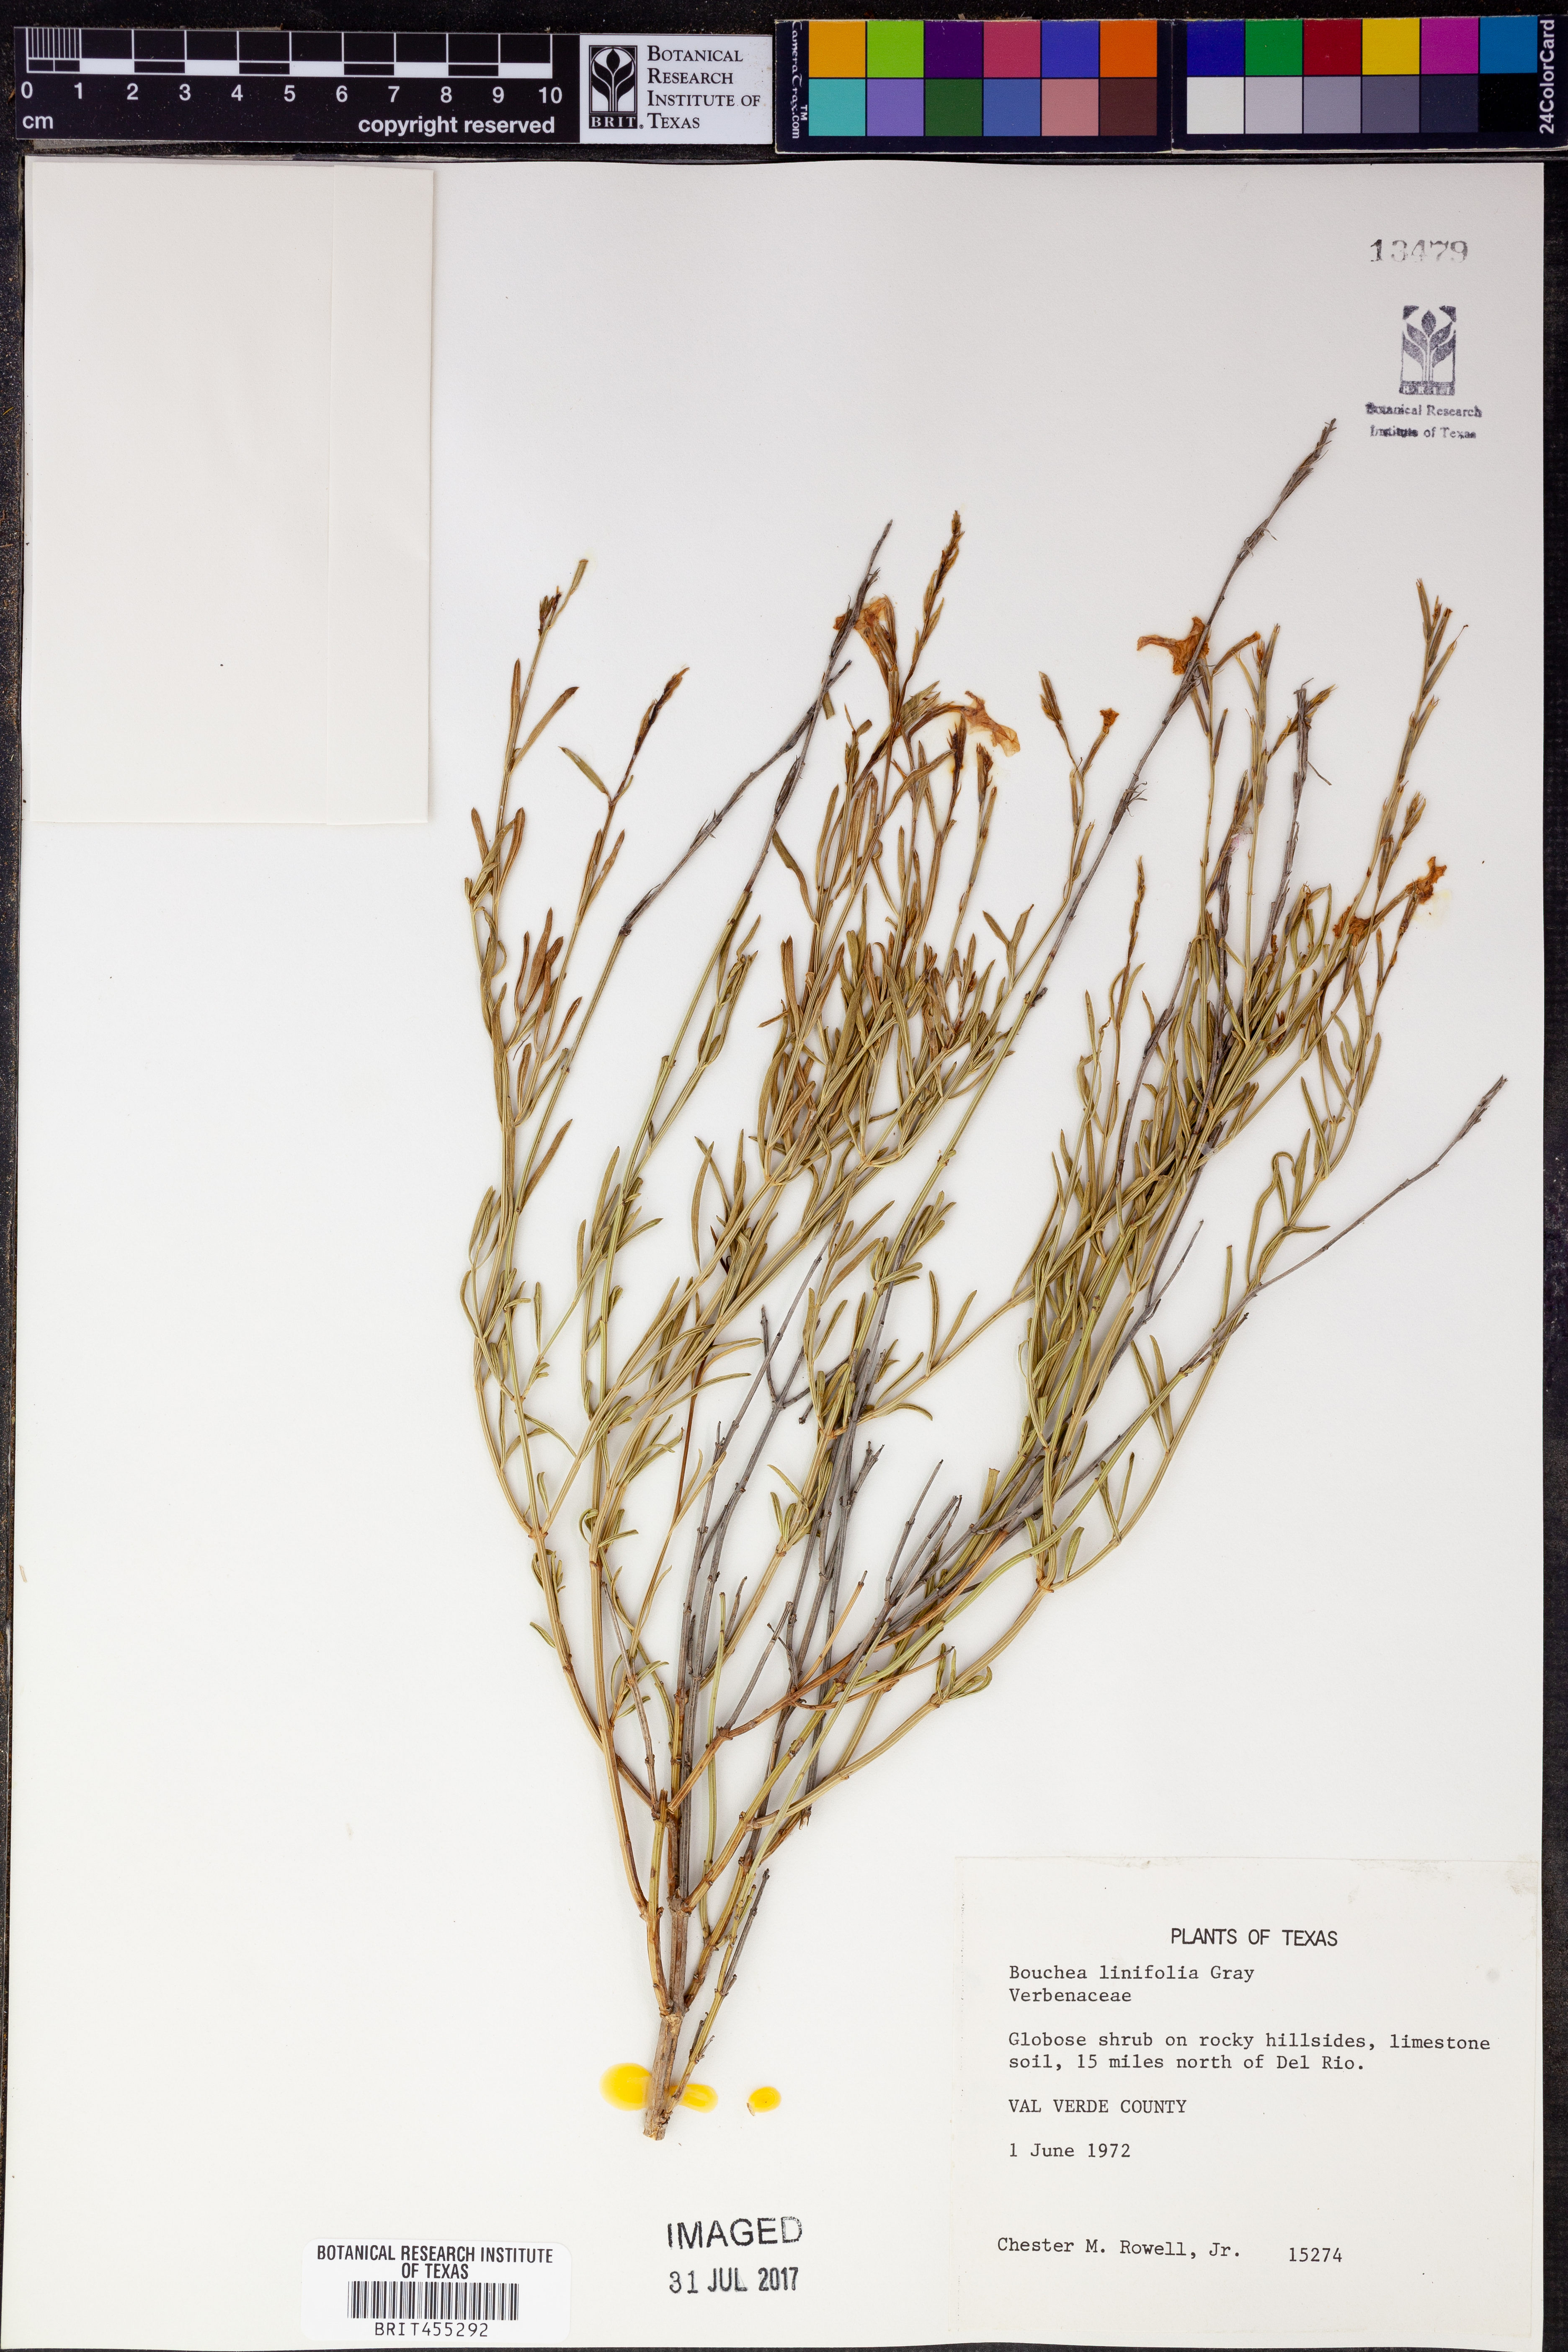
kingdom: Plantae
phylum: Tracheophyta
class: Magnoliopsida
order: Lamiales
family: Verbenaceae
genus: Bouchea
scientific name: Bouchea linifolia
